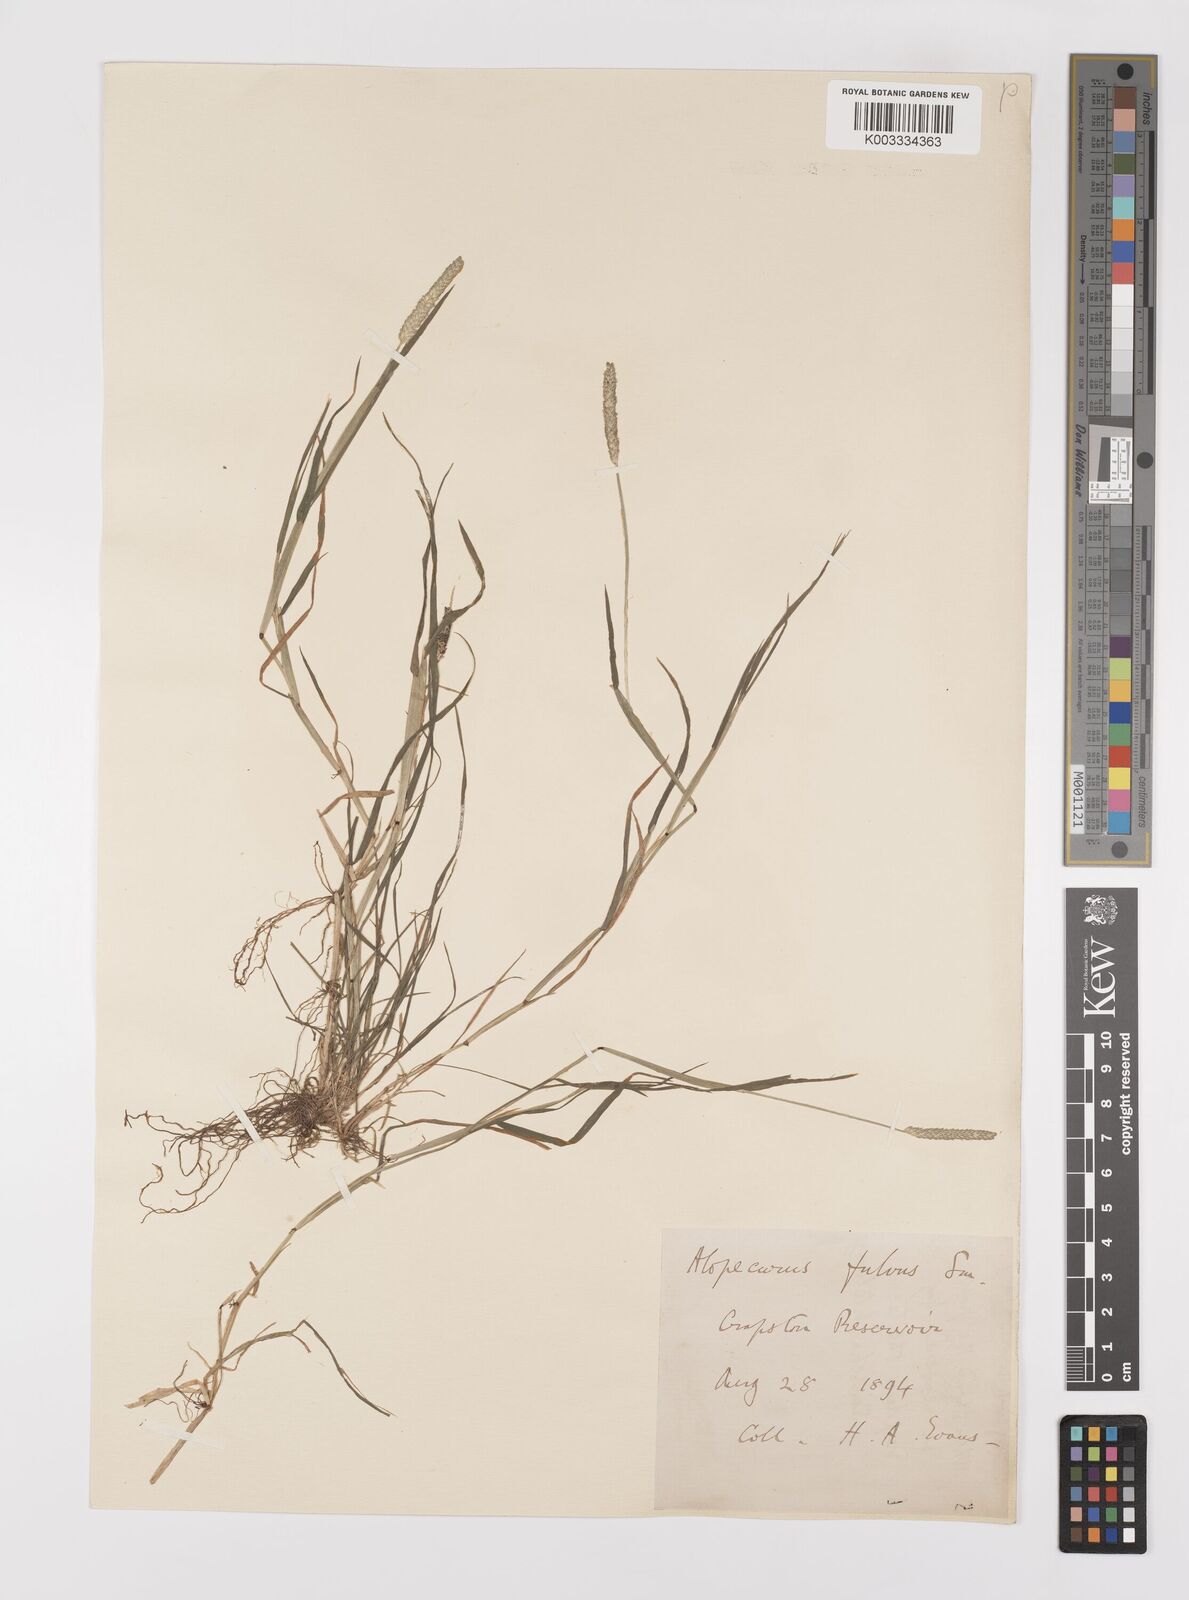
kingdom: Plantae
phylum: Tracheophyta
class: Liliopsida
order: Poales
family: Poaceae
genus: Alopecurus
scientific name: Alopecurus aequalis
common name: Orange foxtail
